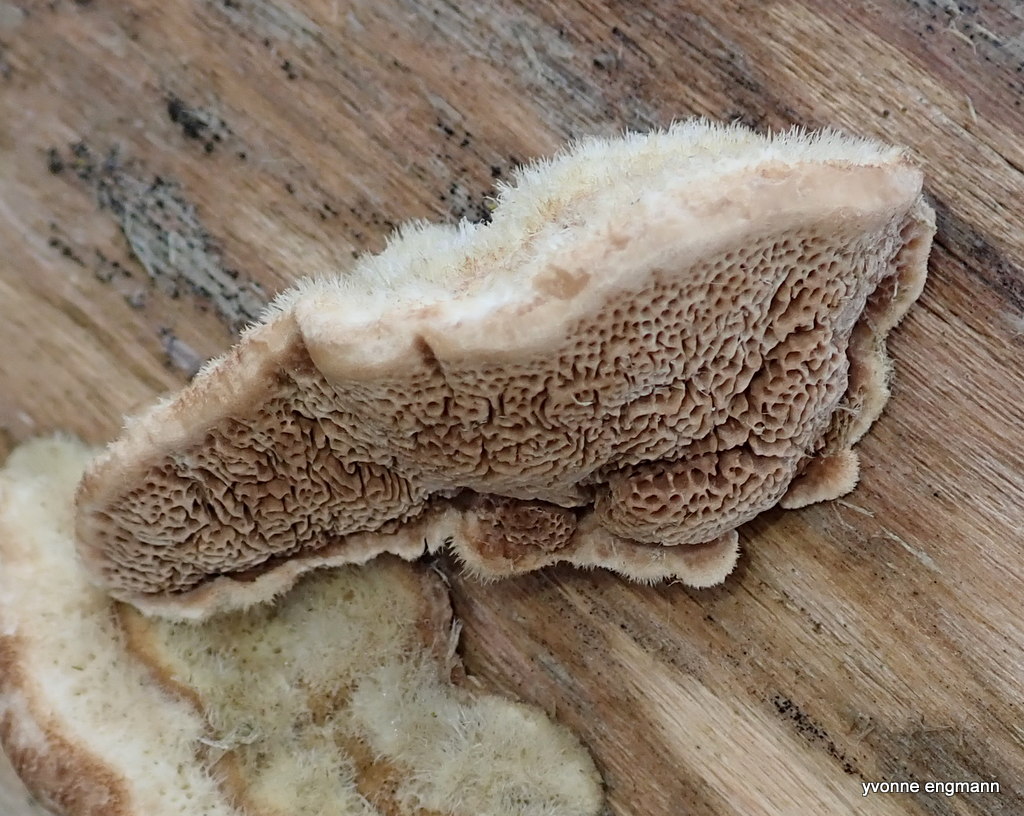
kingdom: Fungi
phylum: Basidiomycota
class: Agaricomycetes
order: Polyporales
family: Polyporaceae
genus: Trametes
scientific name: Trametes hirsuta
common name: håret læderporesvamp
